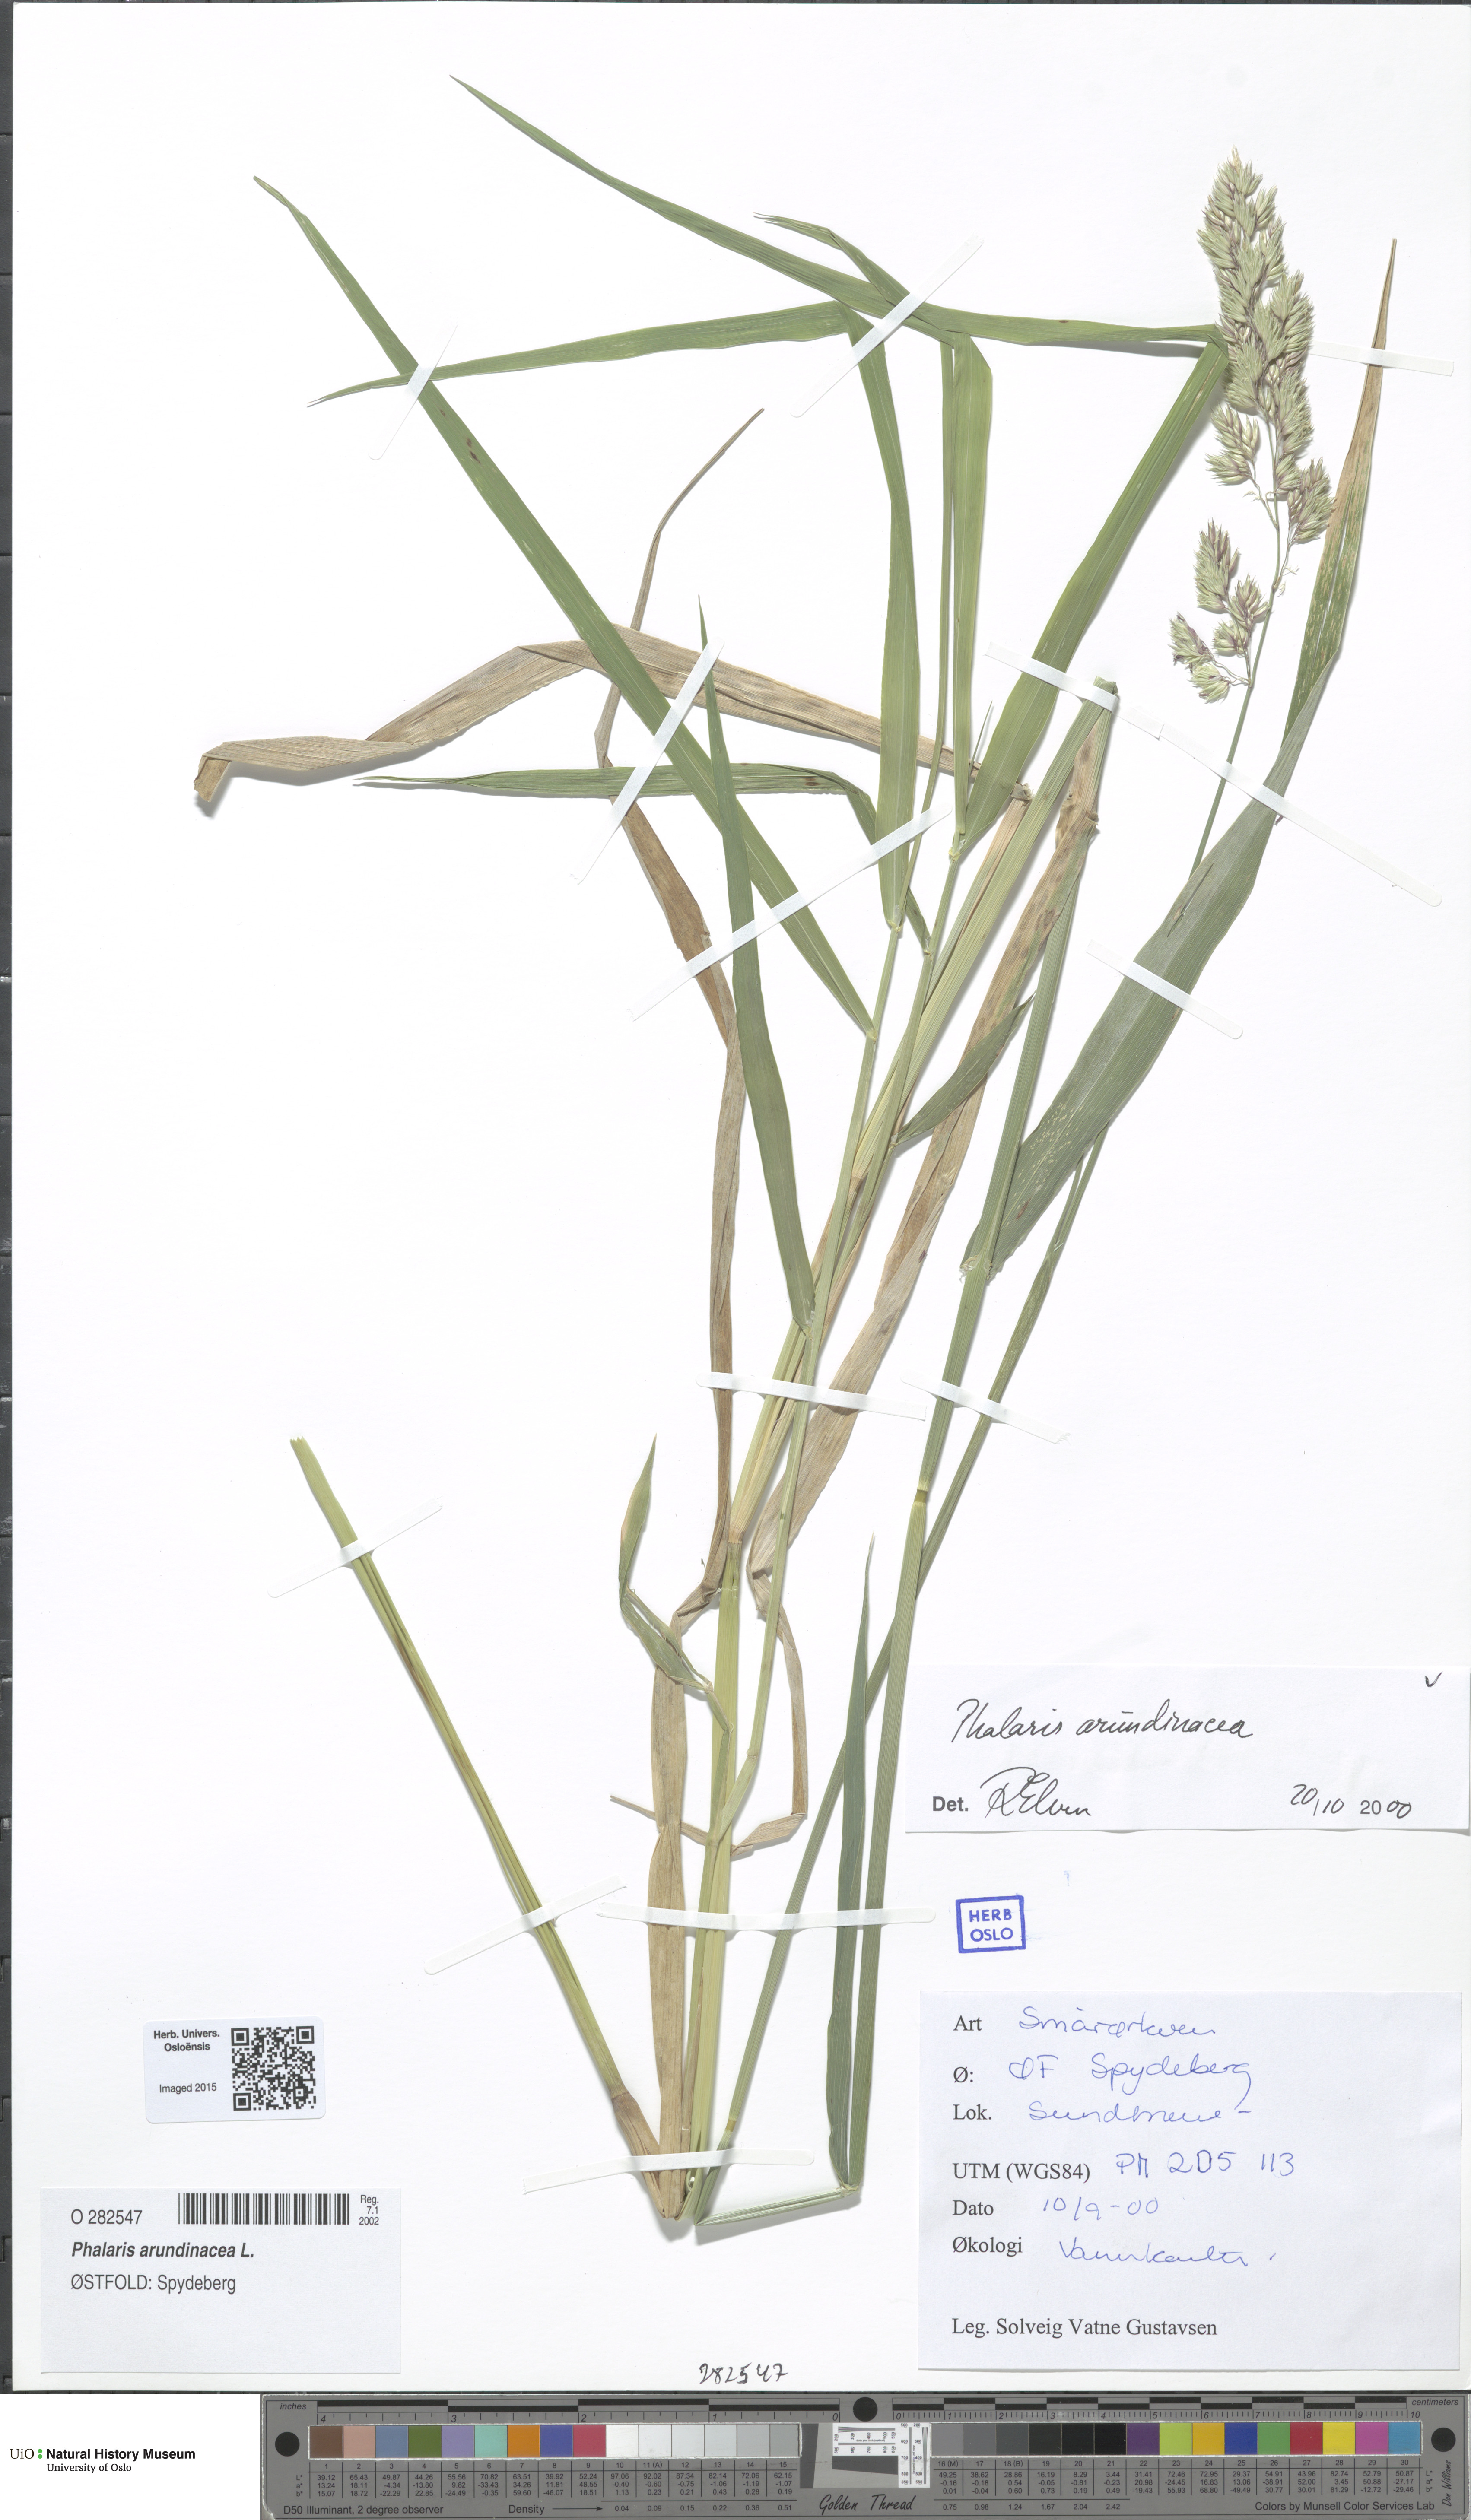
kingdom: Plantae
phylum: Tracheophyta
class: Liliopsida
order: Poales
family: Poaceae
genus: Phalaris
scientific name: Phalaris arundinacea
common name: Reed canary-grass
